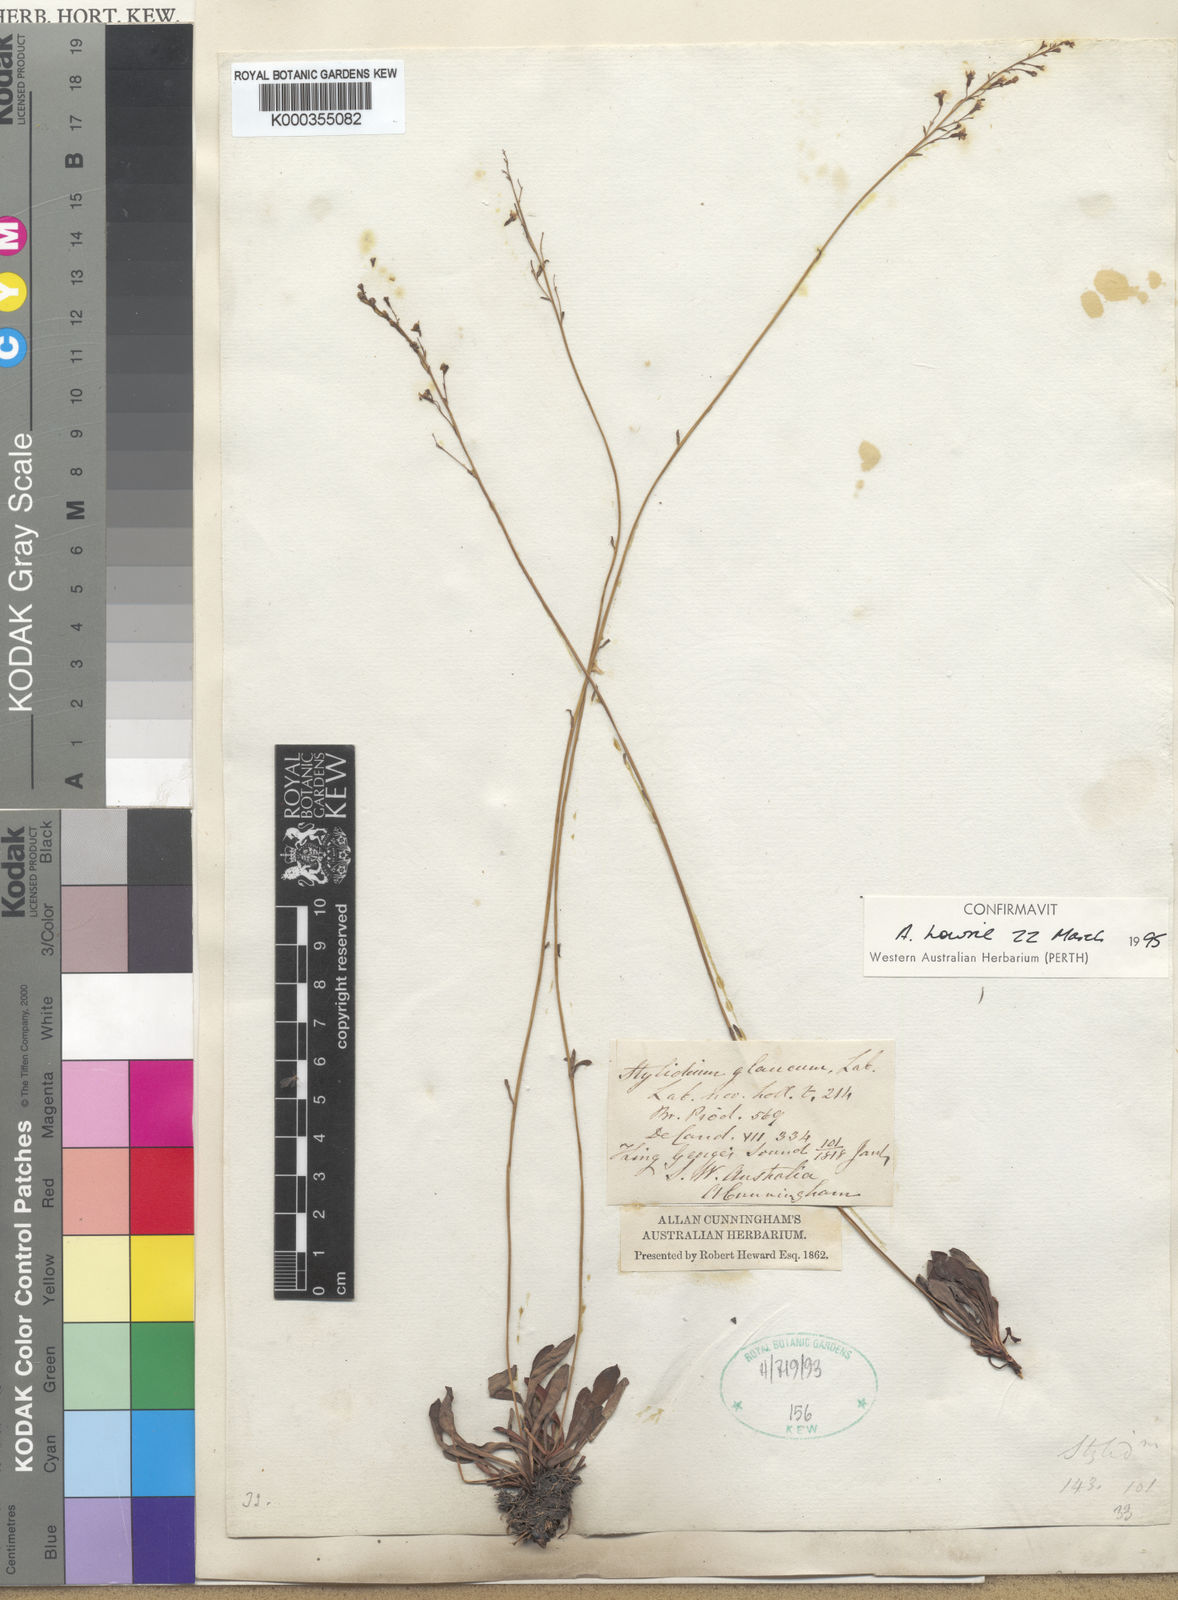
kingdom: Plantae
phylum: Tracheophyta
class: Magnoliopsida
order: Asterales
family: Stylidiaceae
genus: Stylidium
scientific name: Stylidium glaucum
